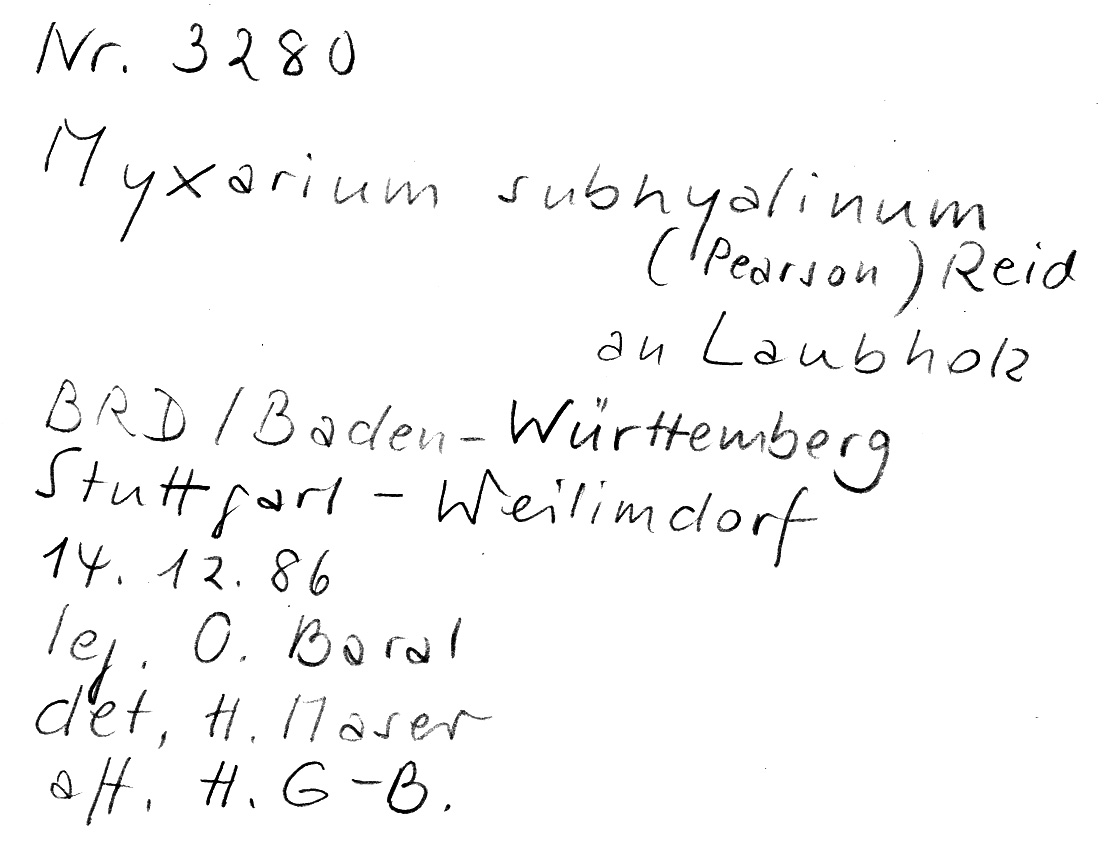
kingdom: Fungi
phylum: Basidiomycota
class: Agaricomycetes
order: Auriculariales
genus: Stypella
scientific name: Stypella subhyalina
